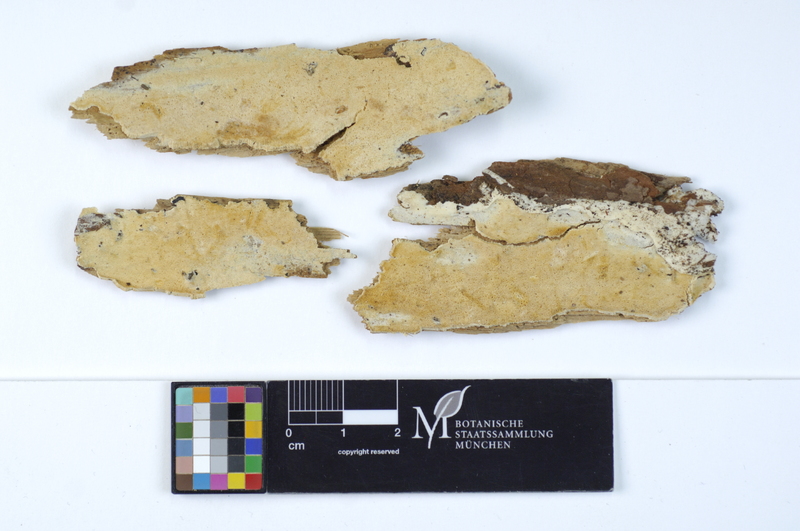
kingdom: Plantae
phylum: Tracheophyta
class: Pinopsida
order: Pinales
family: Pinaceae
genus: Pinus
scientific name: Pinus
